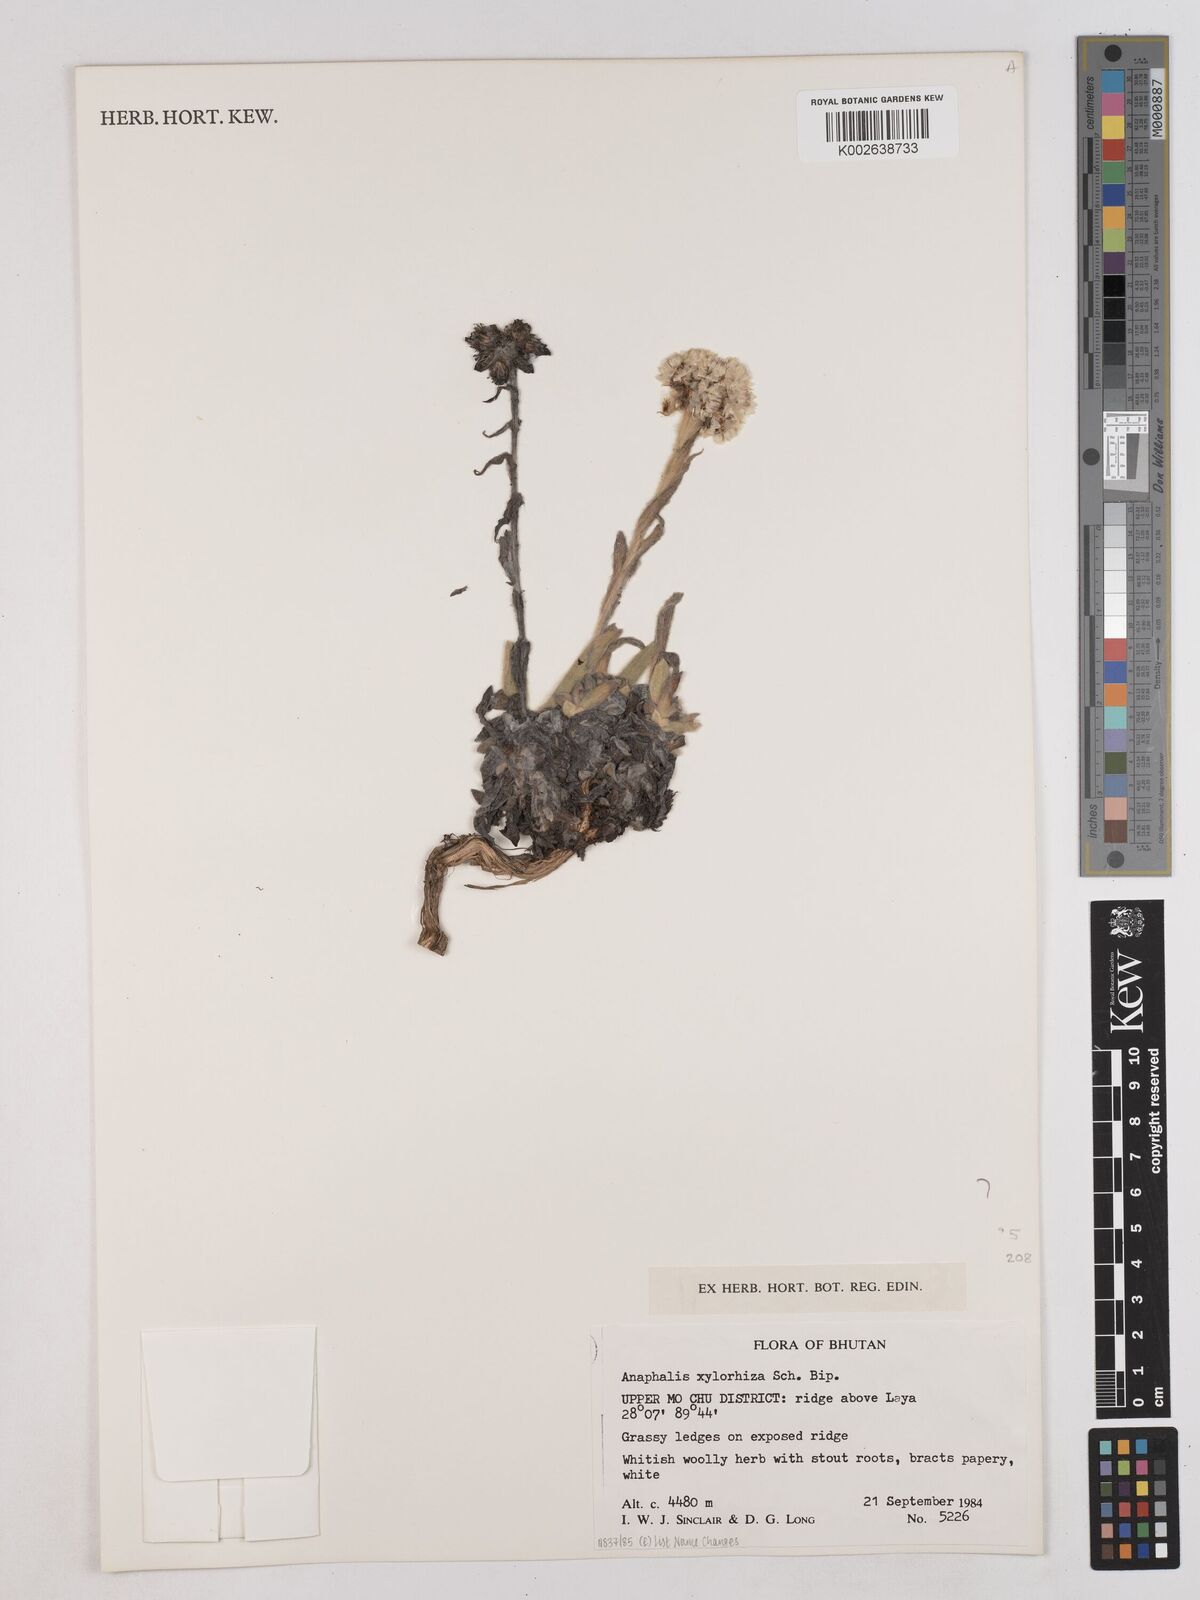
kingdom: Plantae
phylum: Tracheophyta
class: Magnoliopsida
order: Asterales
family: Asteraceae
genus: Anaphalis
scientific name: Anaphalis xylorhiza
